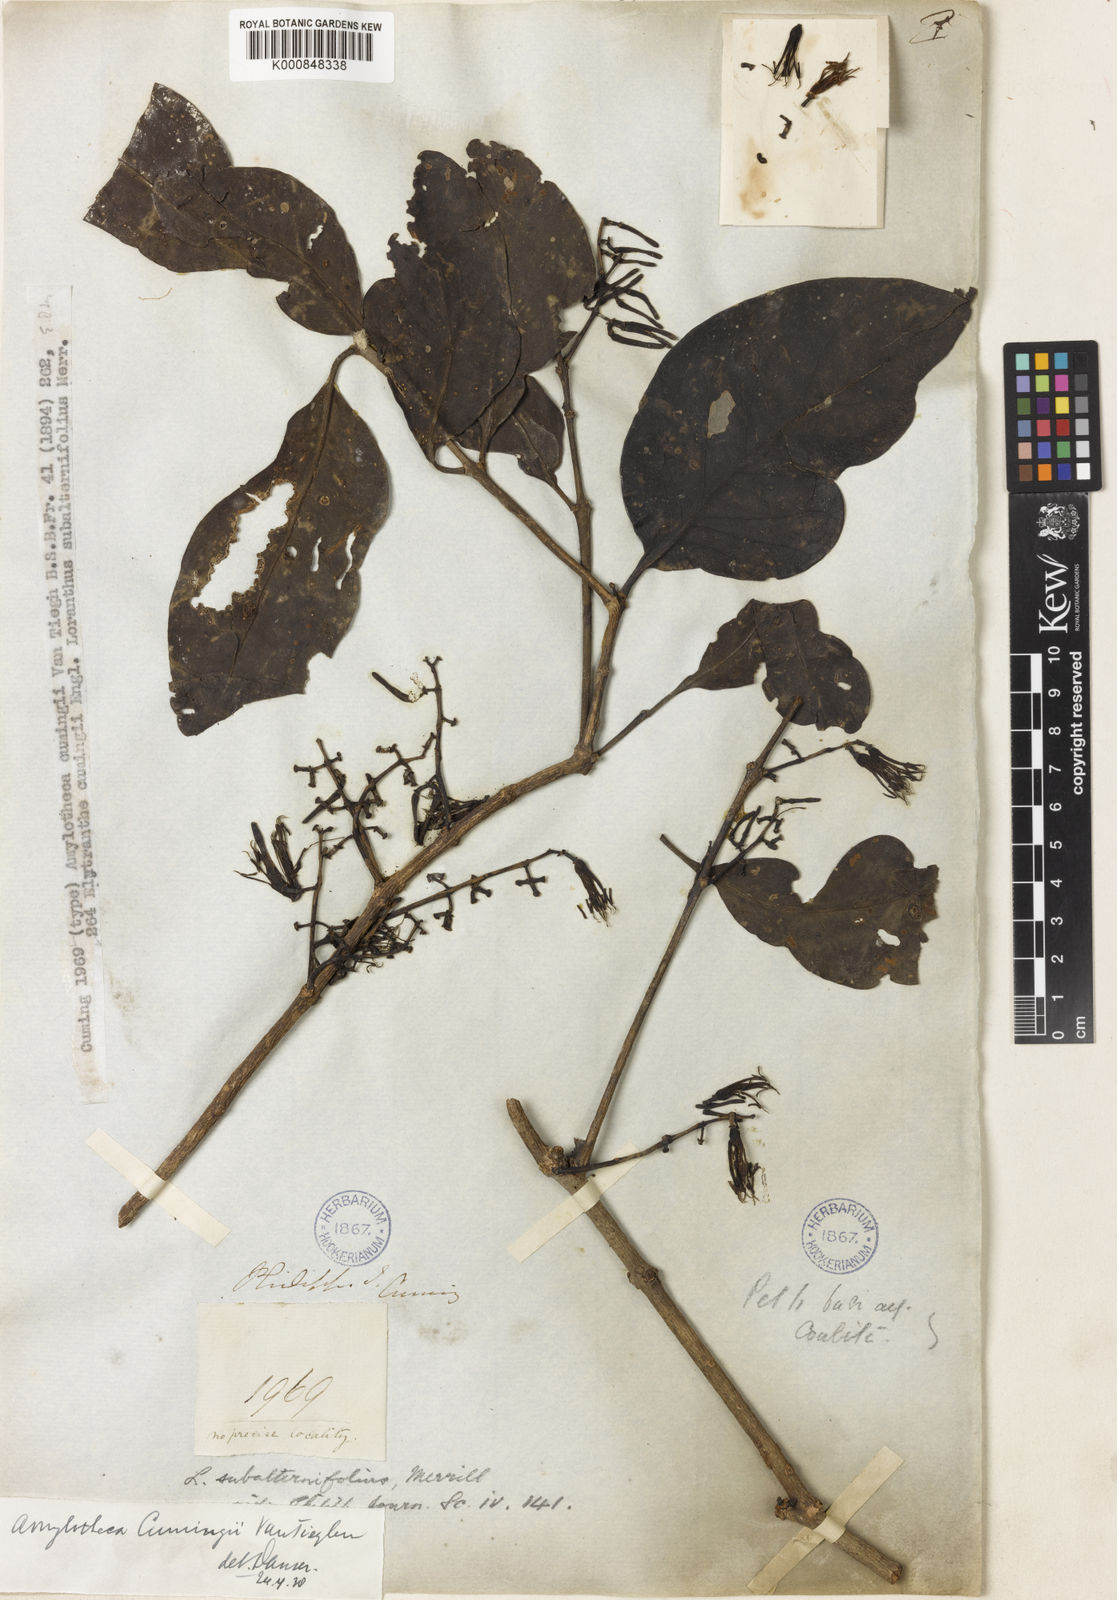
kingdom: Plantae
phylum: Tracheophyta
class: Magnoliopsida
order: Santalales
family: Loranthaceae
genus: Amylotheca
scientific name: Amylotheca
